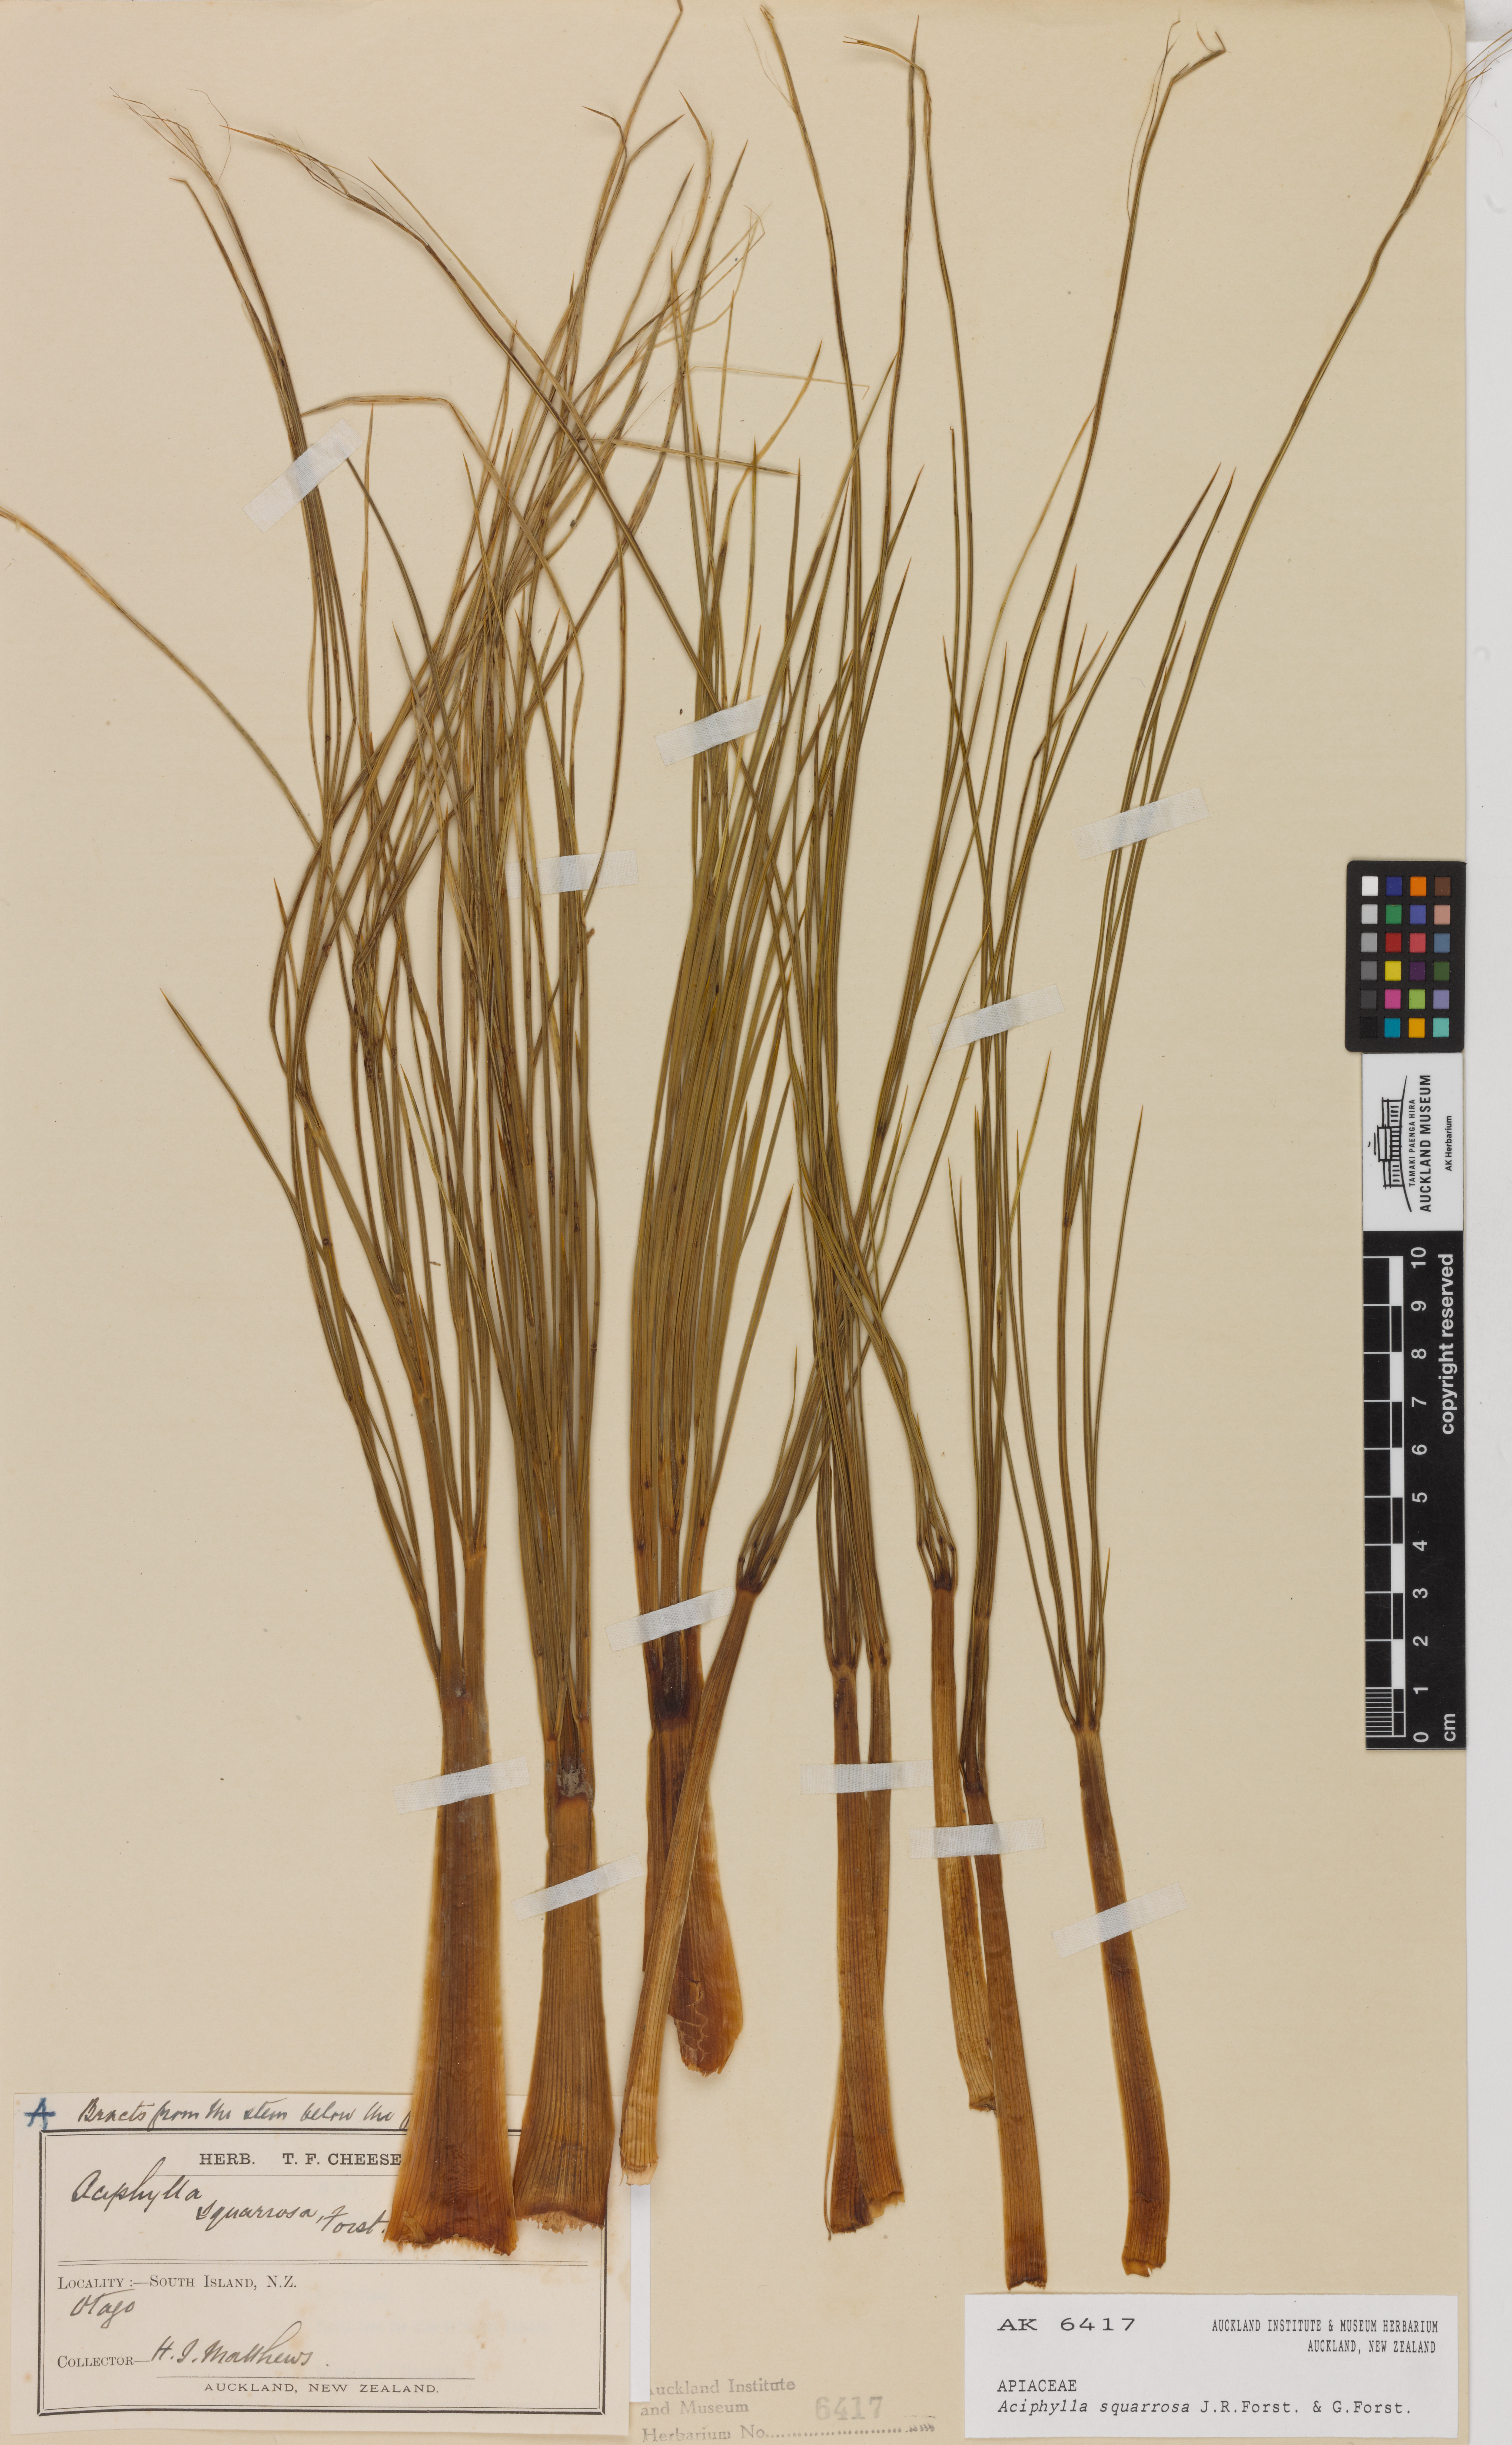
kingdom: Plantae
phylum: Tracheophyta
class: Magnoliopsida
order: Apiales
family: Apiaceae
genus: Aciphylla
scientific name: Aciphylla squarrosa
